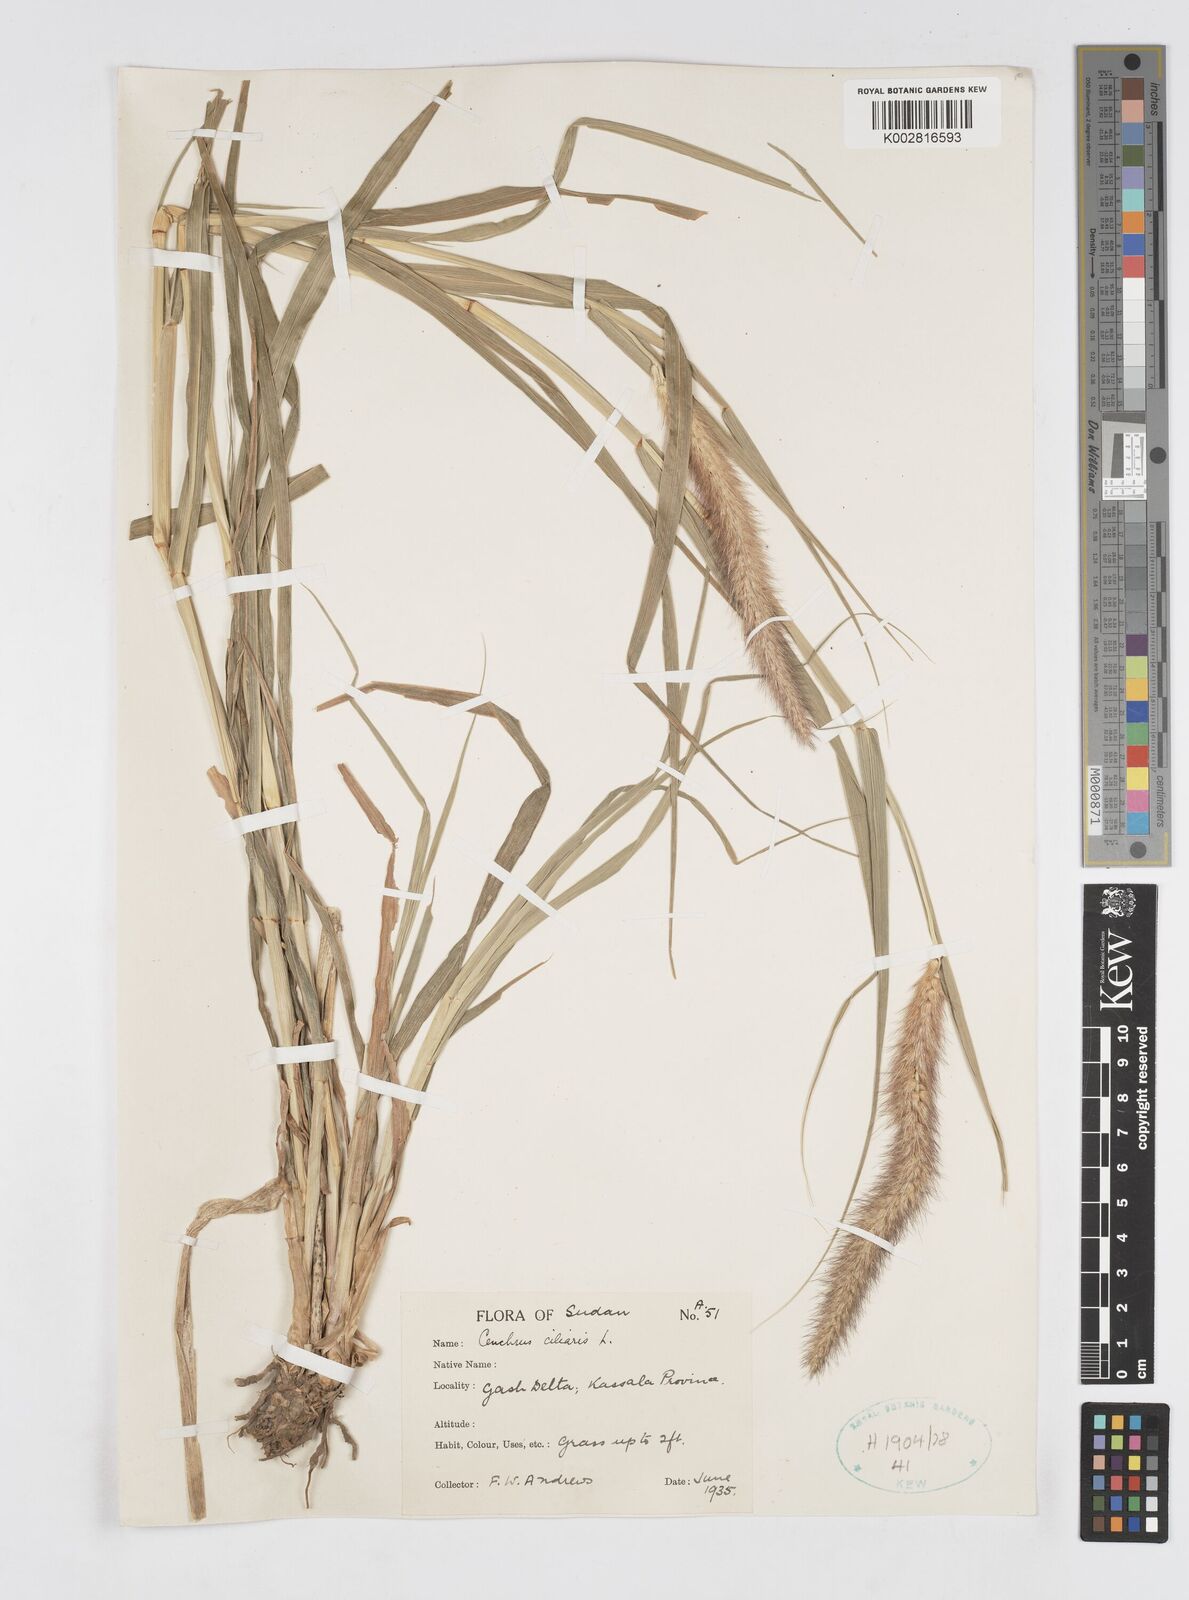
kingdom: Plantae
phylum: Tracheophyta
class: Liliopsida
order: Poales
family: Poaceae
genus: Cenchrus
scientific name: Cenchrus ciliaris
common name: Buffelgrass
